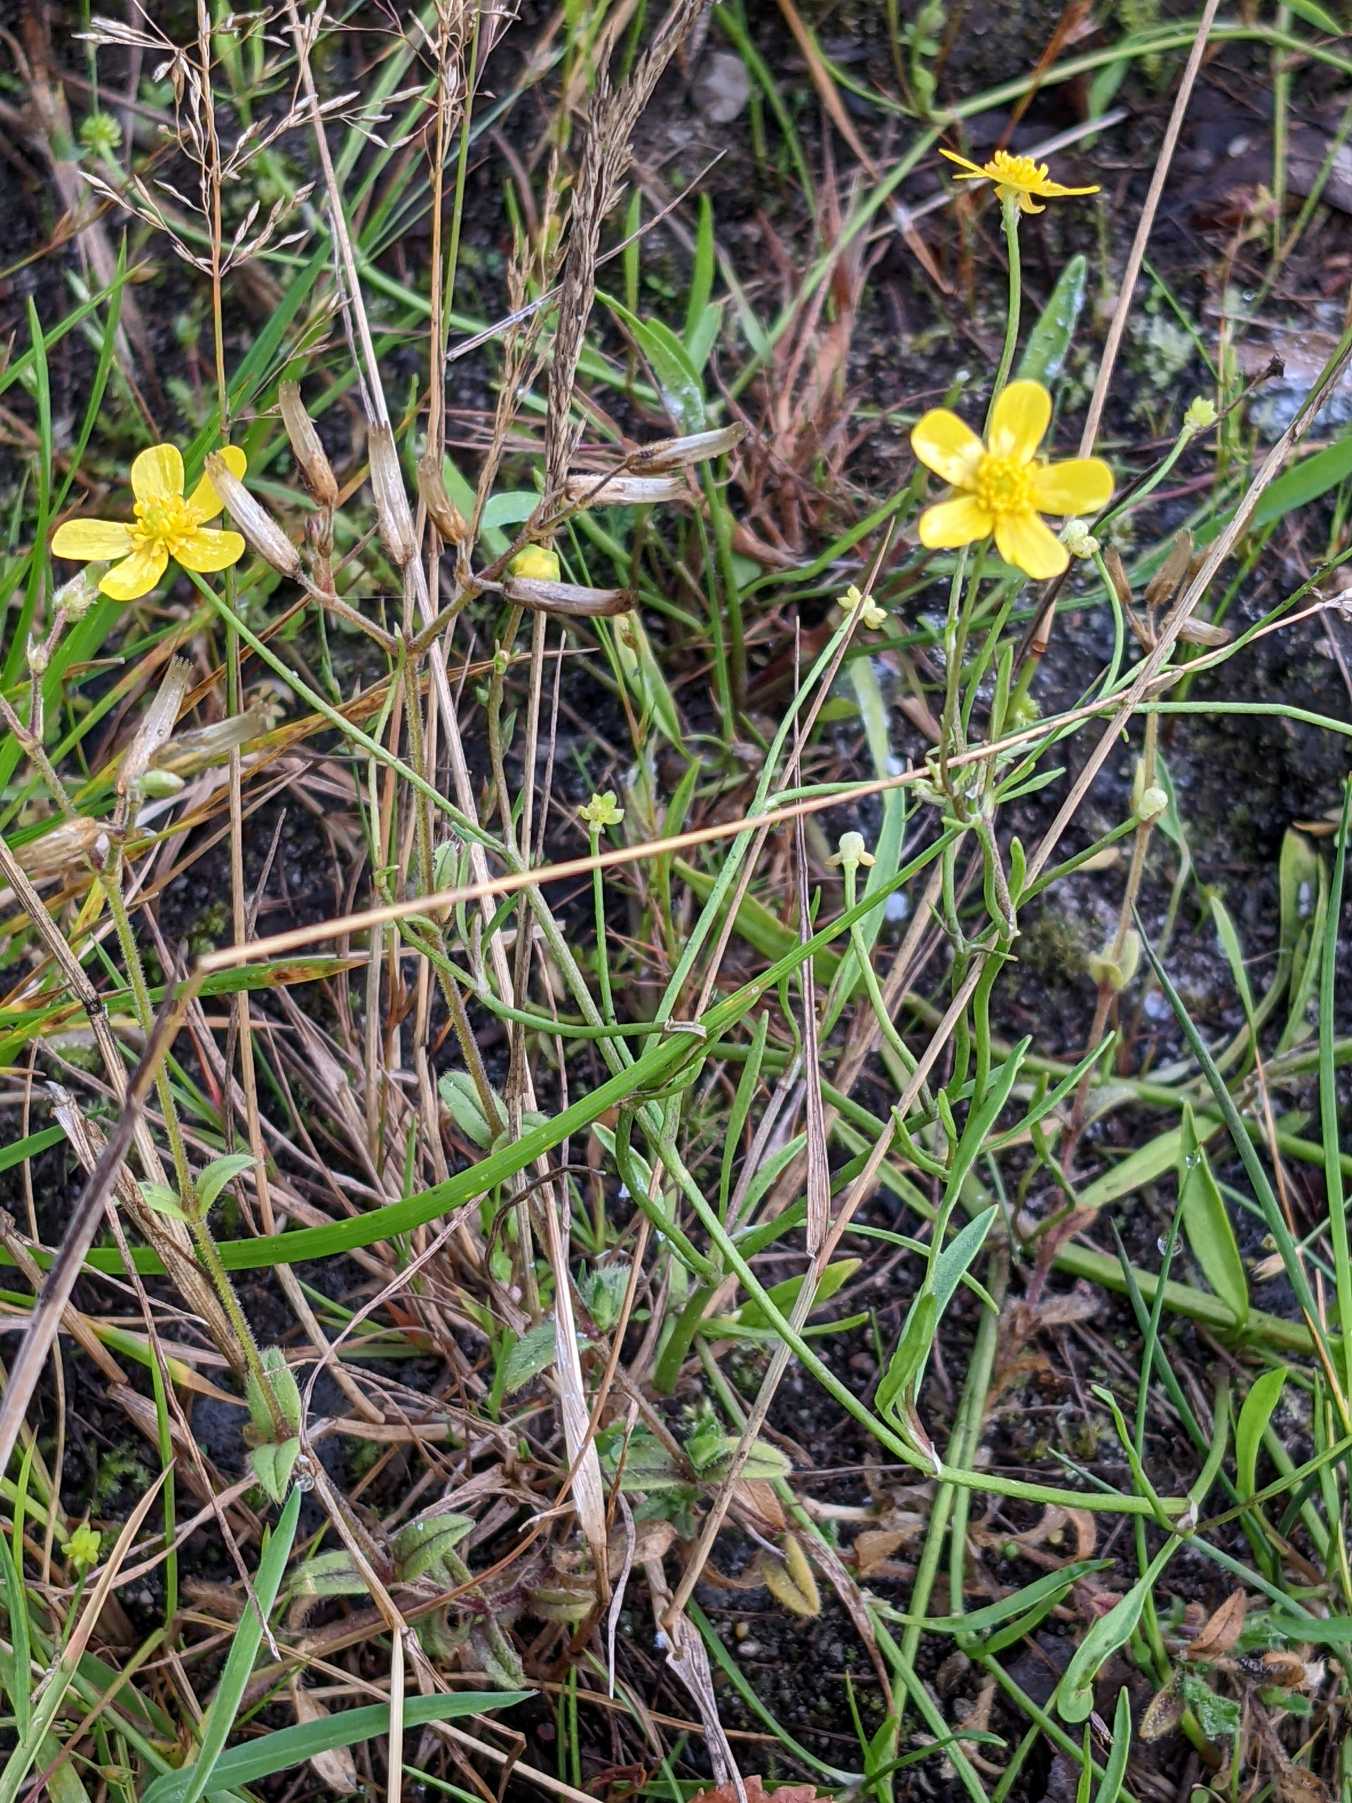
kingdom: Plantae
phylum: Tracheophyta
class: Magnoliopsida
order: Ranunculales
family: Ranunculaceae
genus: Ranunculus
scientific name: Ranunculus flammula
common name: Kær-ranunkel
